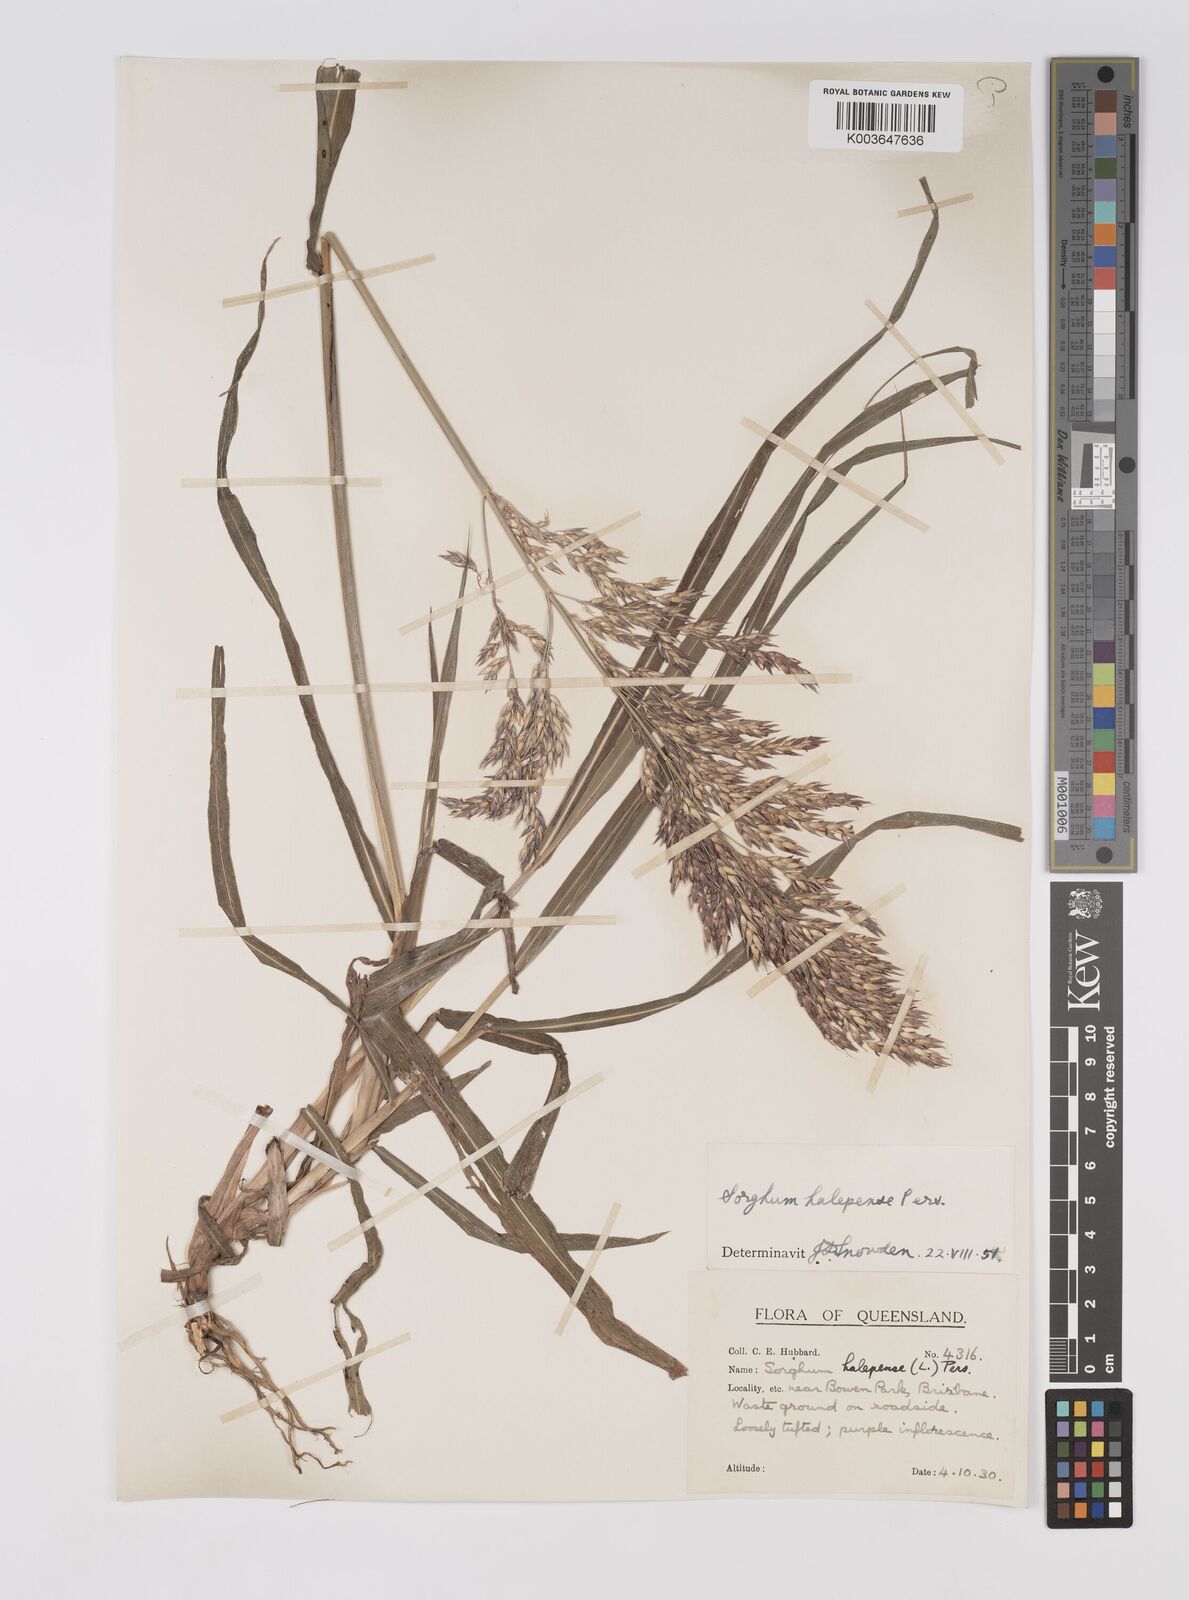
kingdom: Plantae
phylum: Tracheophyta
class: Liliopsida
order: Poales
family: Poaceae
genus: Sorghum
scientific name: Sorghum halepense
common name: Johnson-grass
